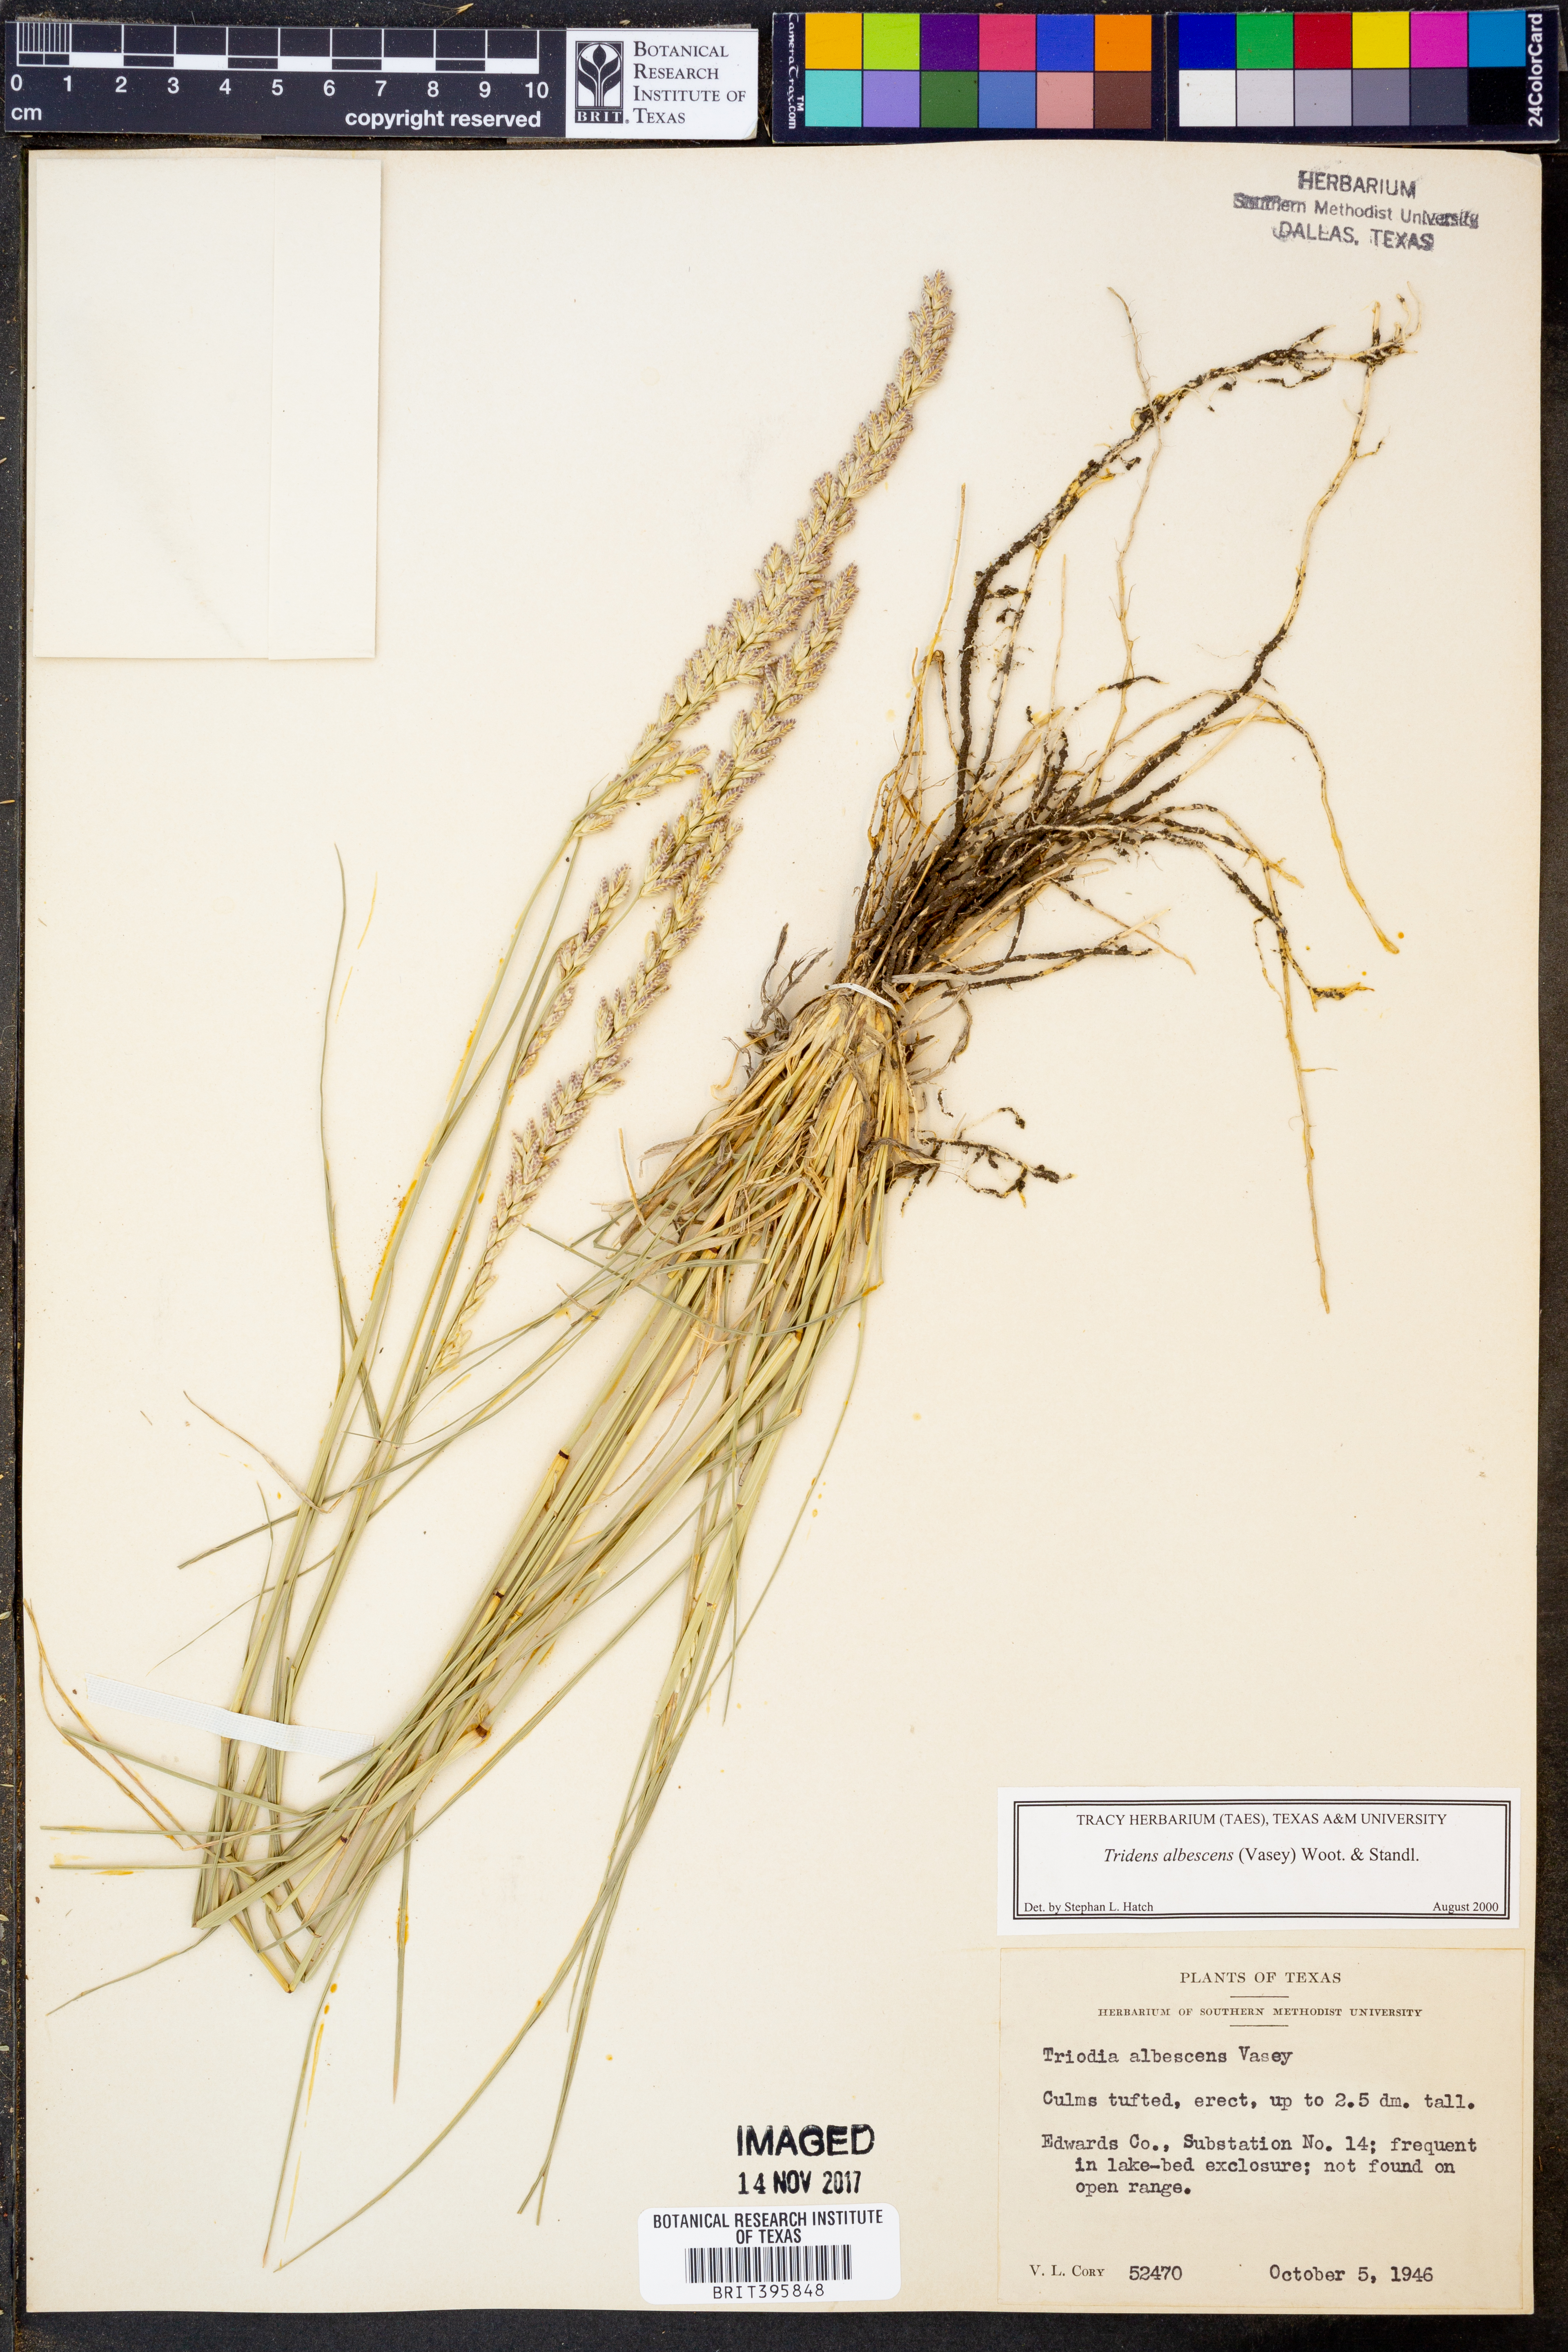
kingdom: Plantae
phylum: Tracheophyta
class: Liliopsida
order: Poales
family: Poaceae
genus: Tridens
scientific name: Tridens albescens
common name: White tridens
